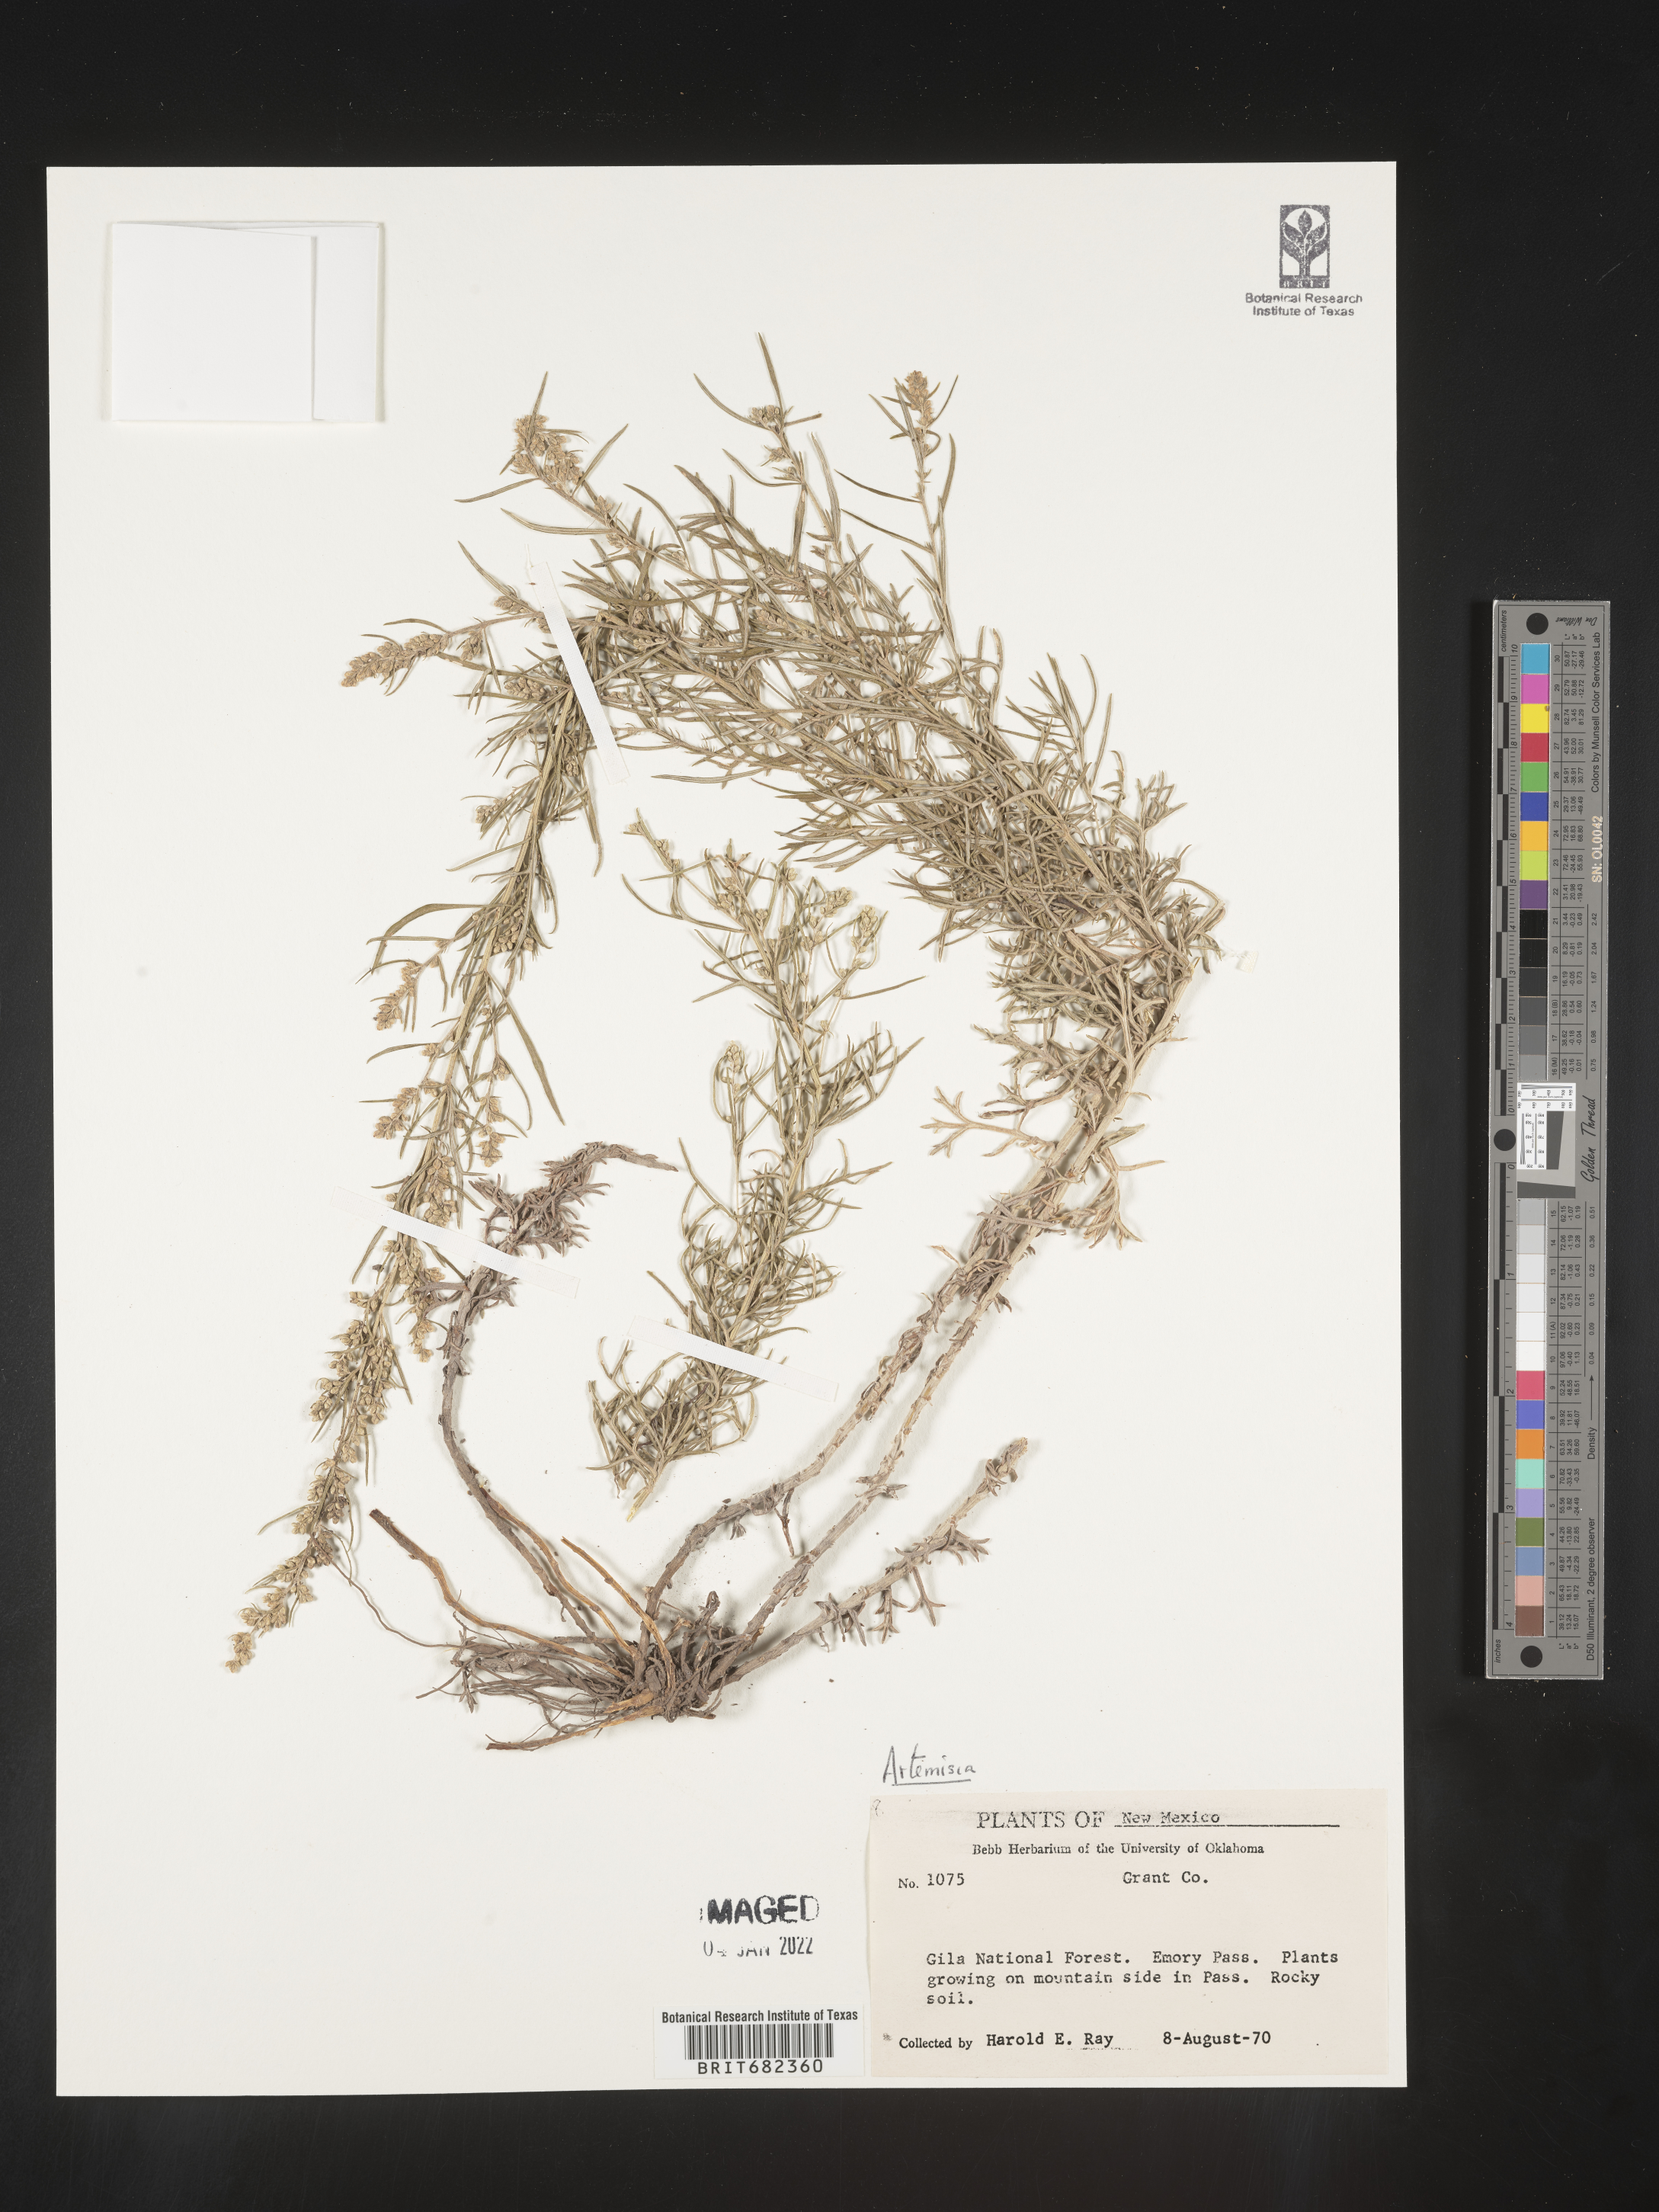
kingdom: Plantae
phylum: Tracheophyta
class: Magnoliopsida
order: Asterales
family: Asteraceae
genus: Artemisia
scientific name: Artemisia
